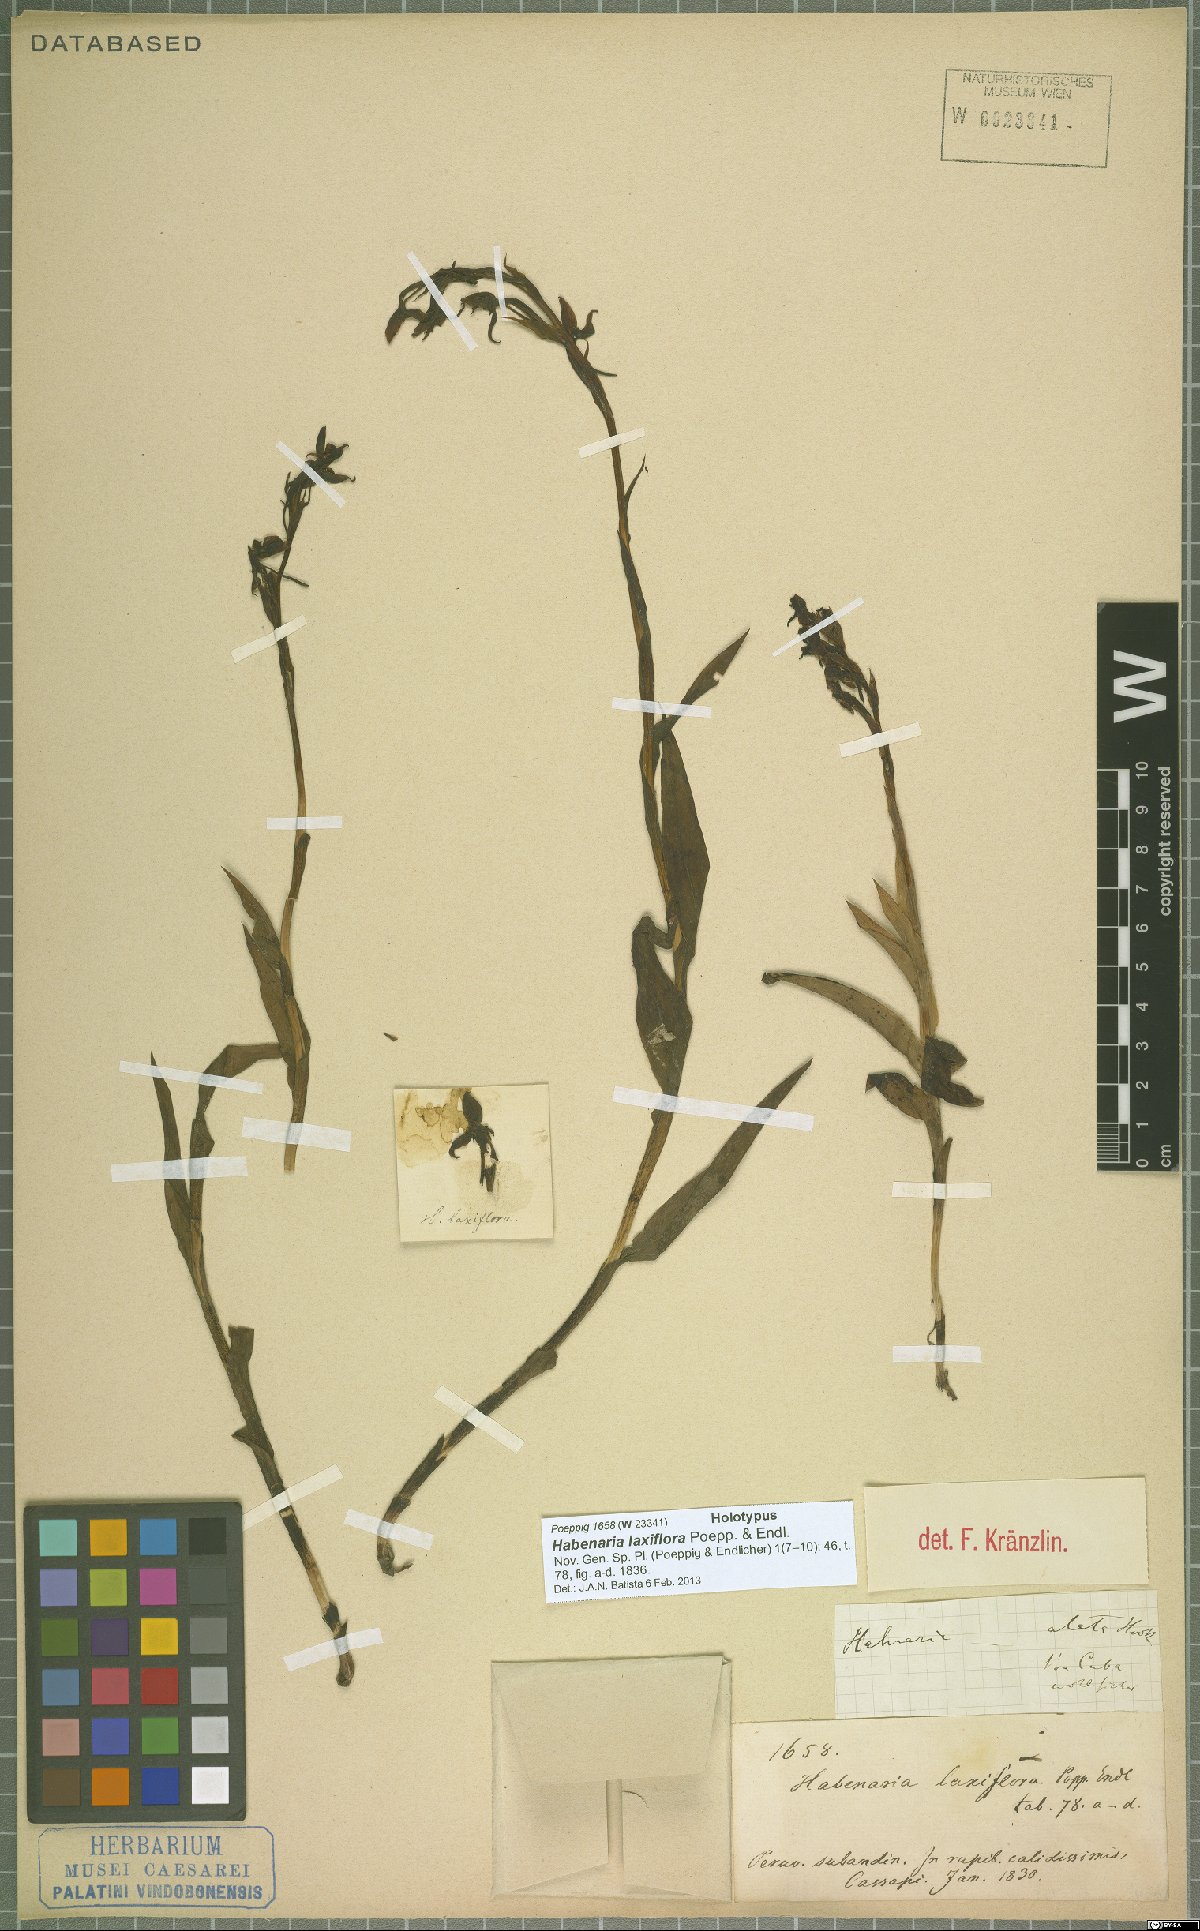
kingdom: Plantae
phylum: Tracheophyta
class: Liliopsida
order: Asparagales
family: Orchidaceae
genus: Habenaria
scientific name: Habenaria alata
